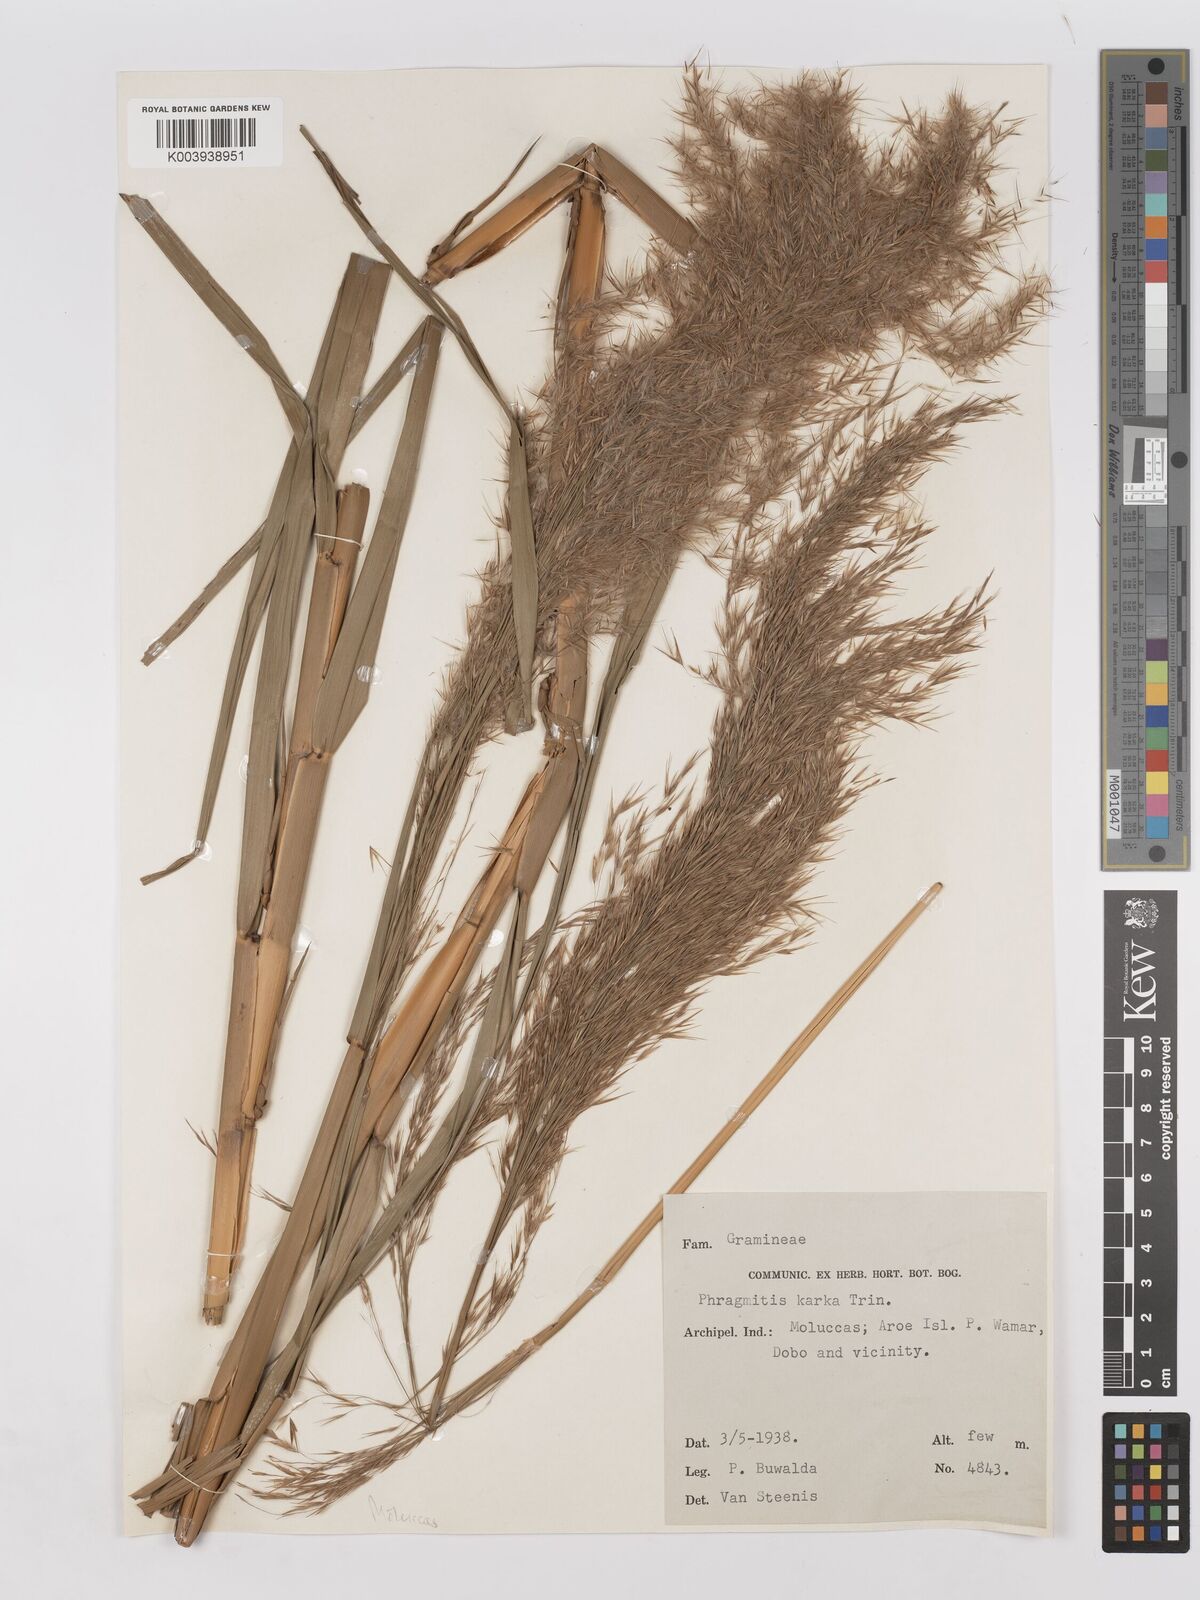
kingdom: Plantae
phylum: Tracheophyta
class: Liliopsida
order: Poales
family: Poaceae
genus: Phragmites
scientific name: Phragmites karka
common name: Tropical reed
